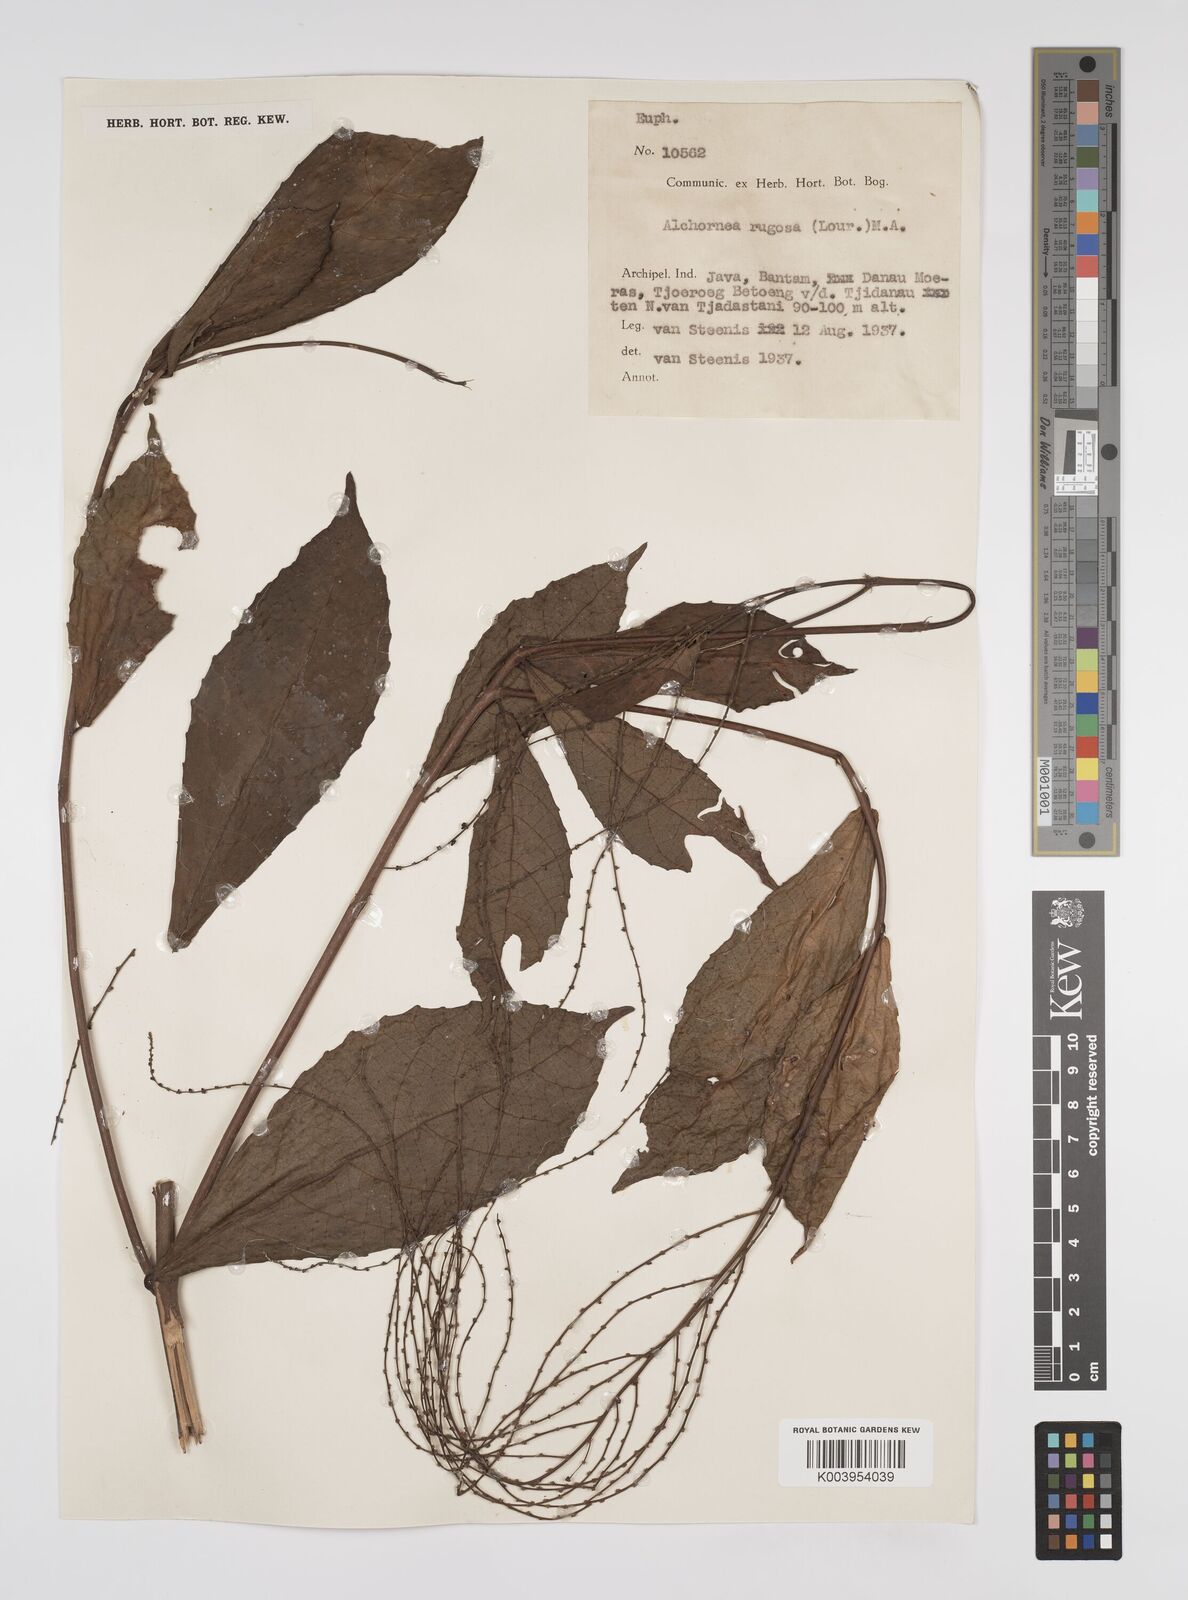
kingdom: Plantae
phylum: Tracheophyta
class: Magnoliopsida
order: Malpighiales
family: Euphorbiaceae
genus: Alchornea
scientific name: Alchornea rugosa
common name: Alchorntree
